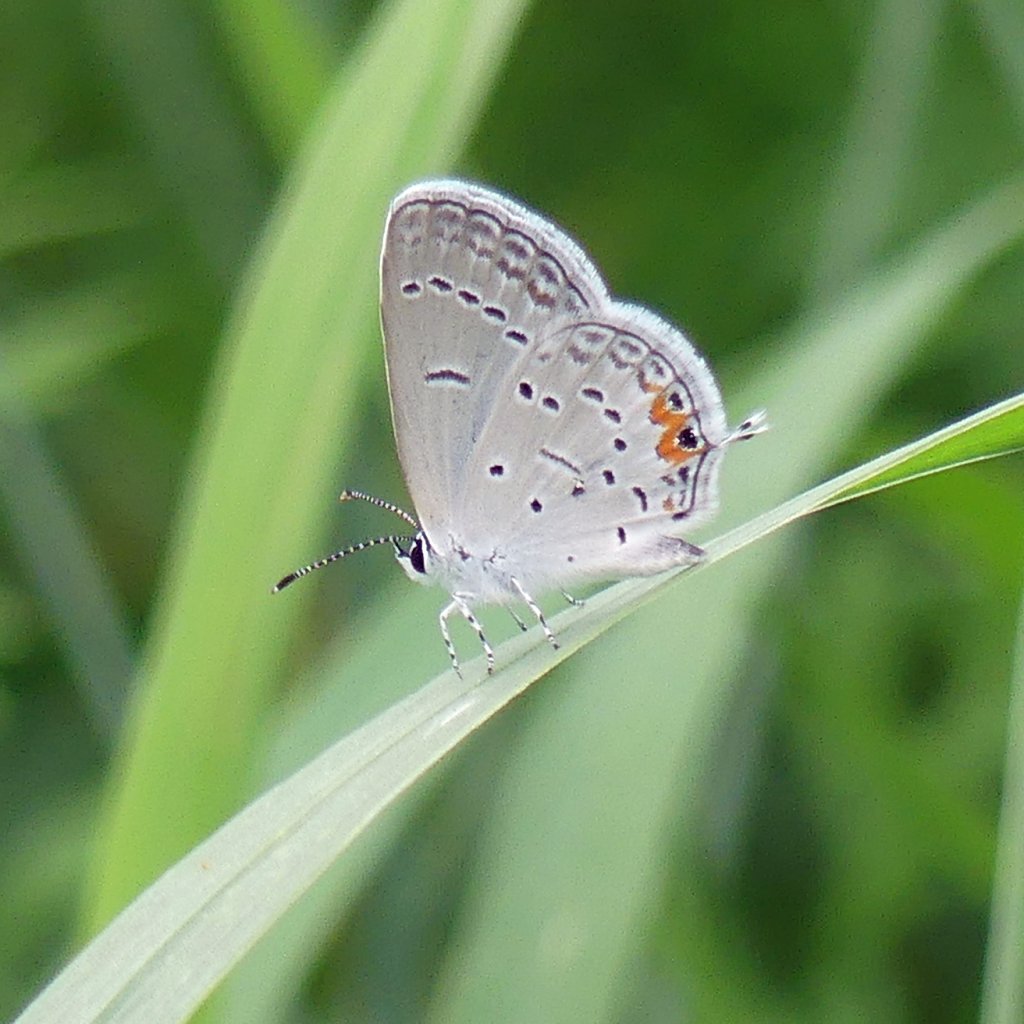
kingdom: Animalia
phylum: Arthropoda
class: Insecta
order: Lepidoptera
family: Lycaenidae
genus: Elkalyce
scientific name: Elkalyce comyntas
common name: Eastern Tailed-Blue
